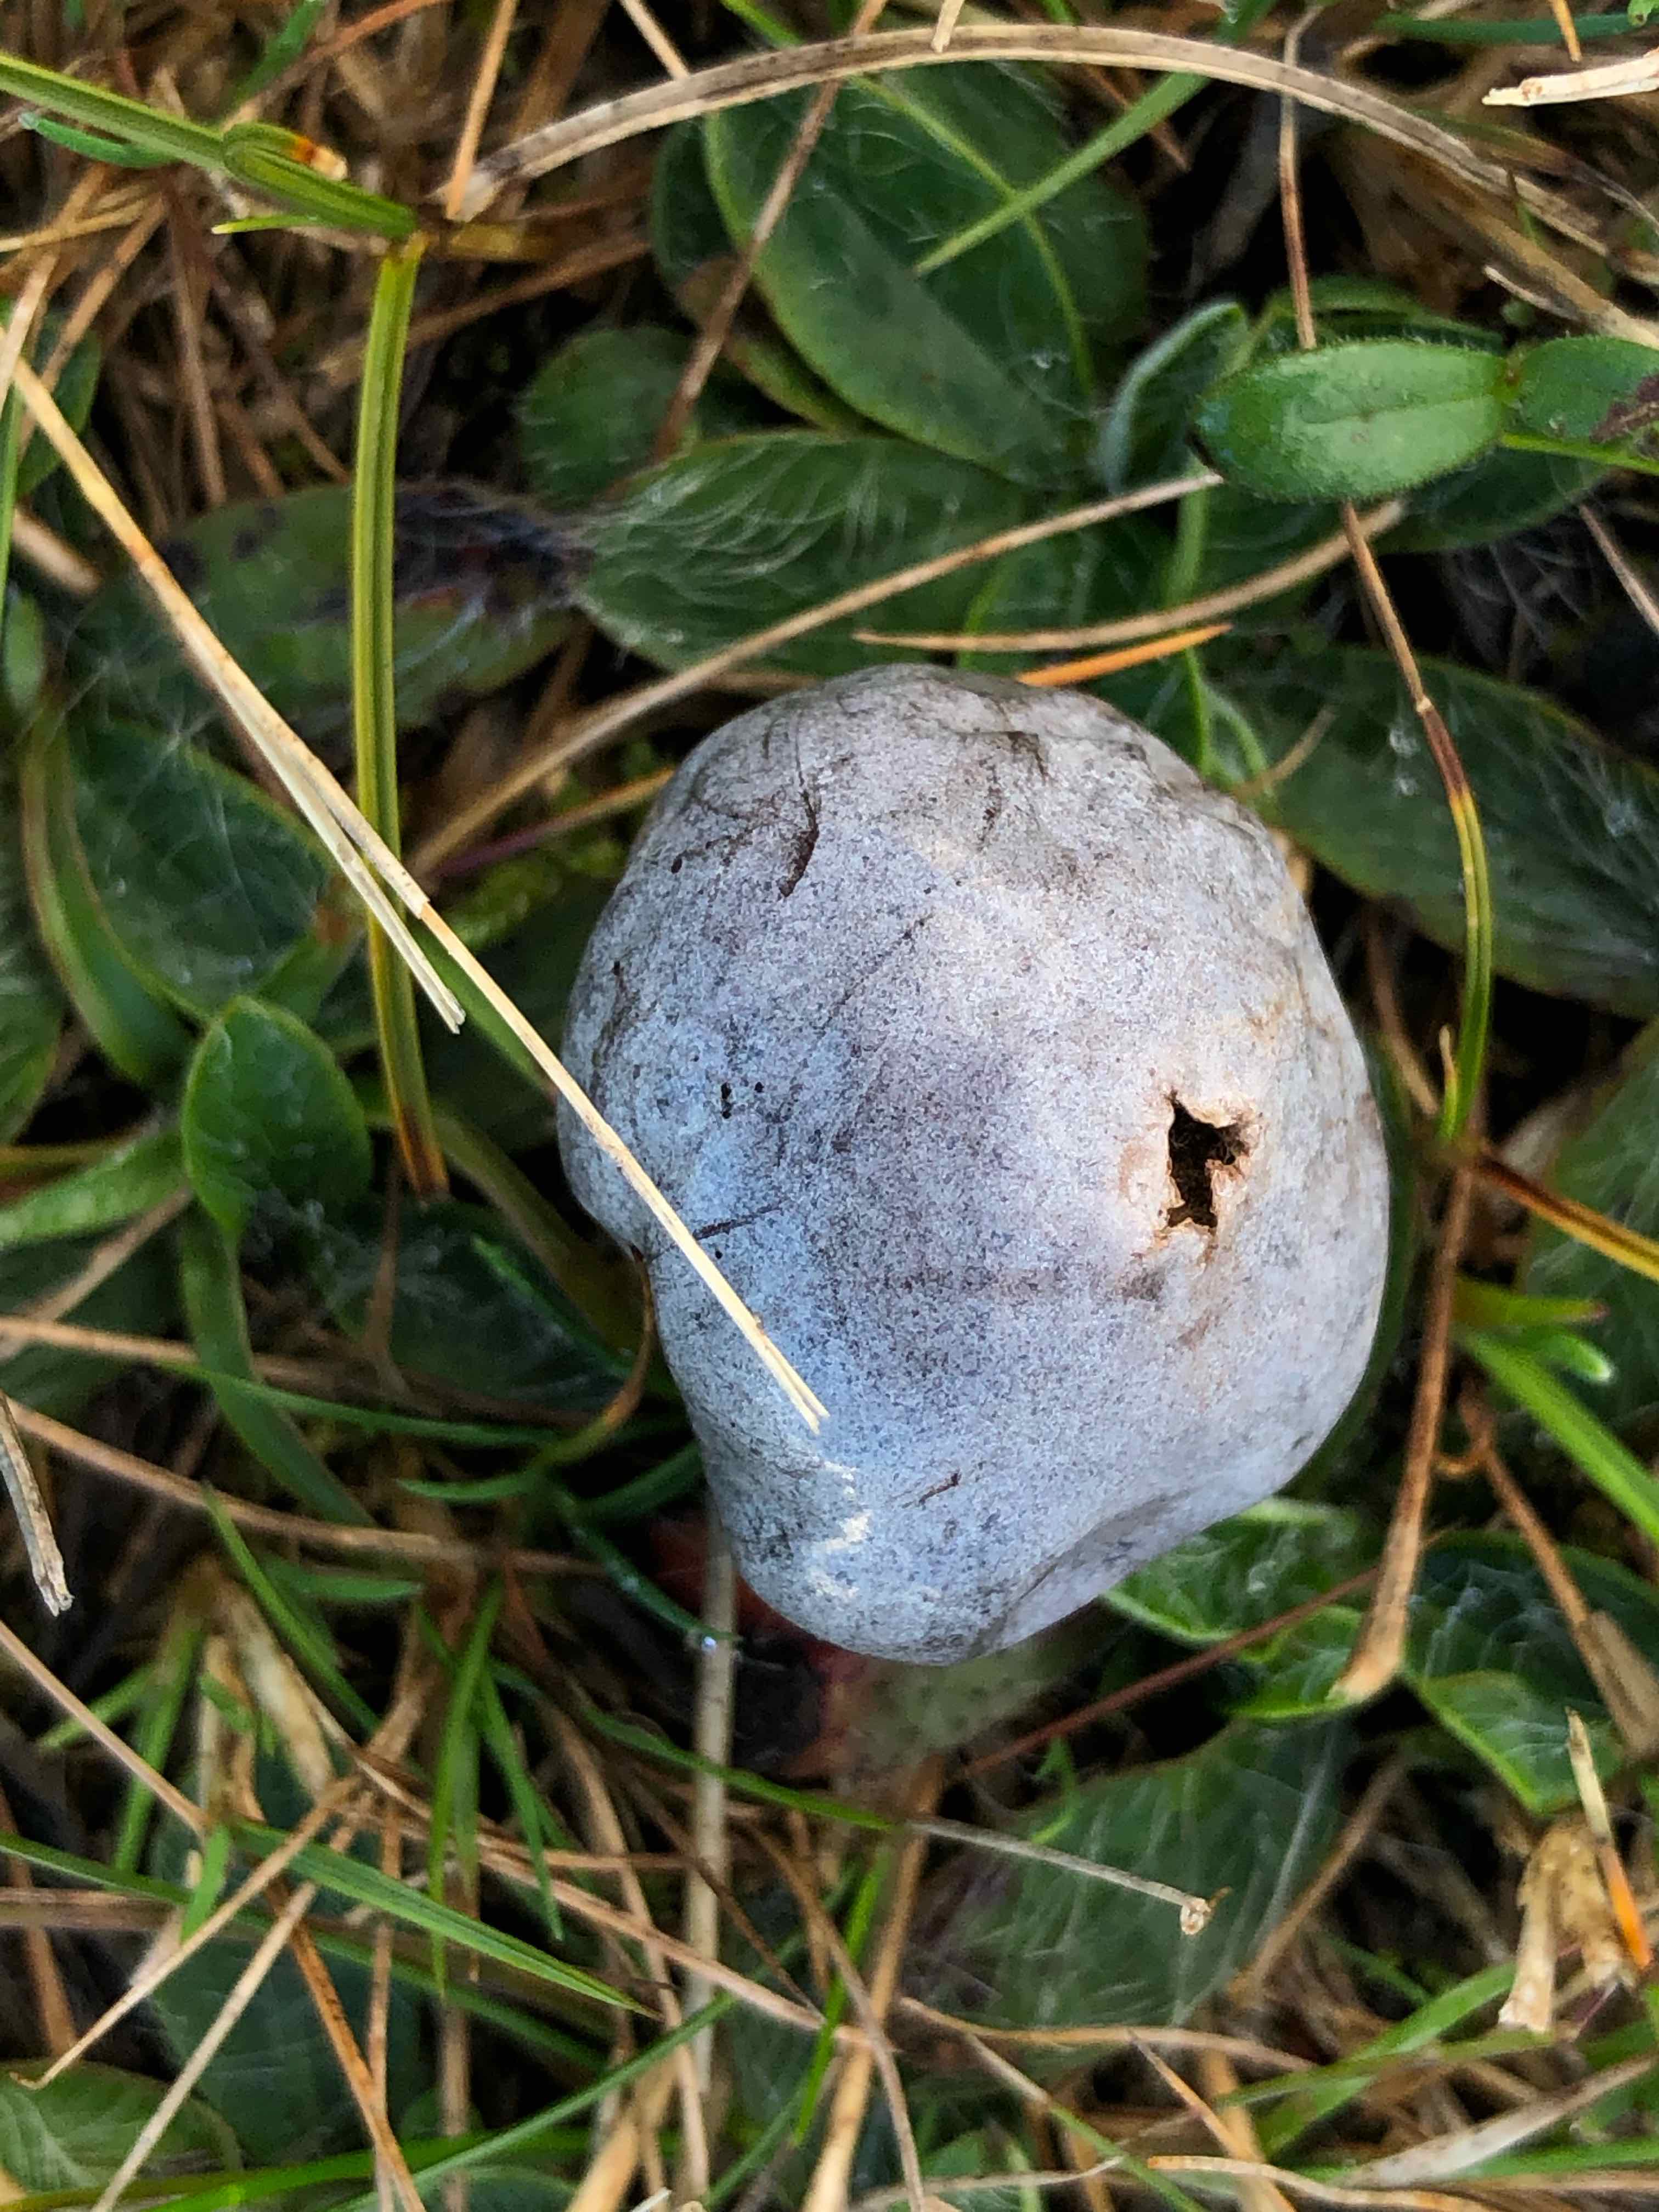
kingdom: Fungi
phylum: Basidiomycota
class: Agaricomycetes
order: Agaricales
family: Lycoperdaceae
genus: Bovista
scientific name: Bovista plumbea
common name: blygrå bovist
